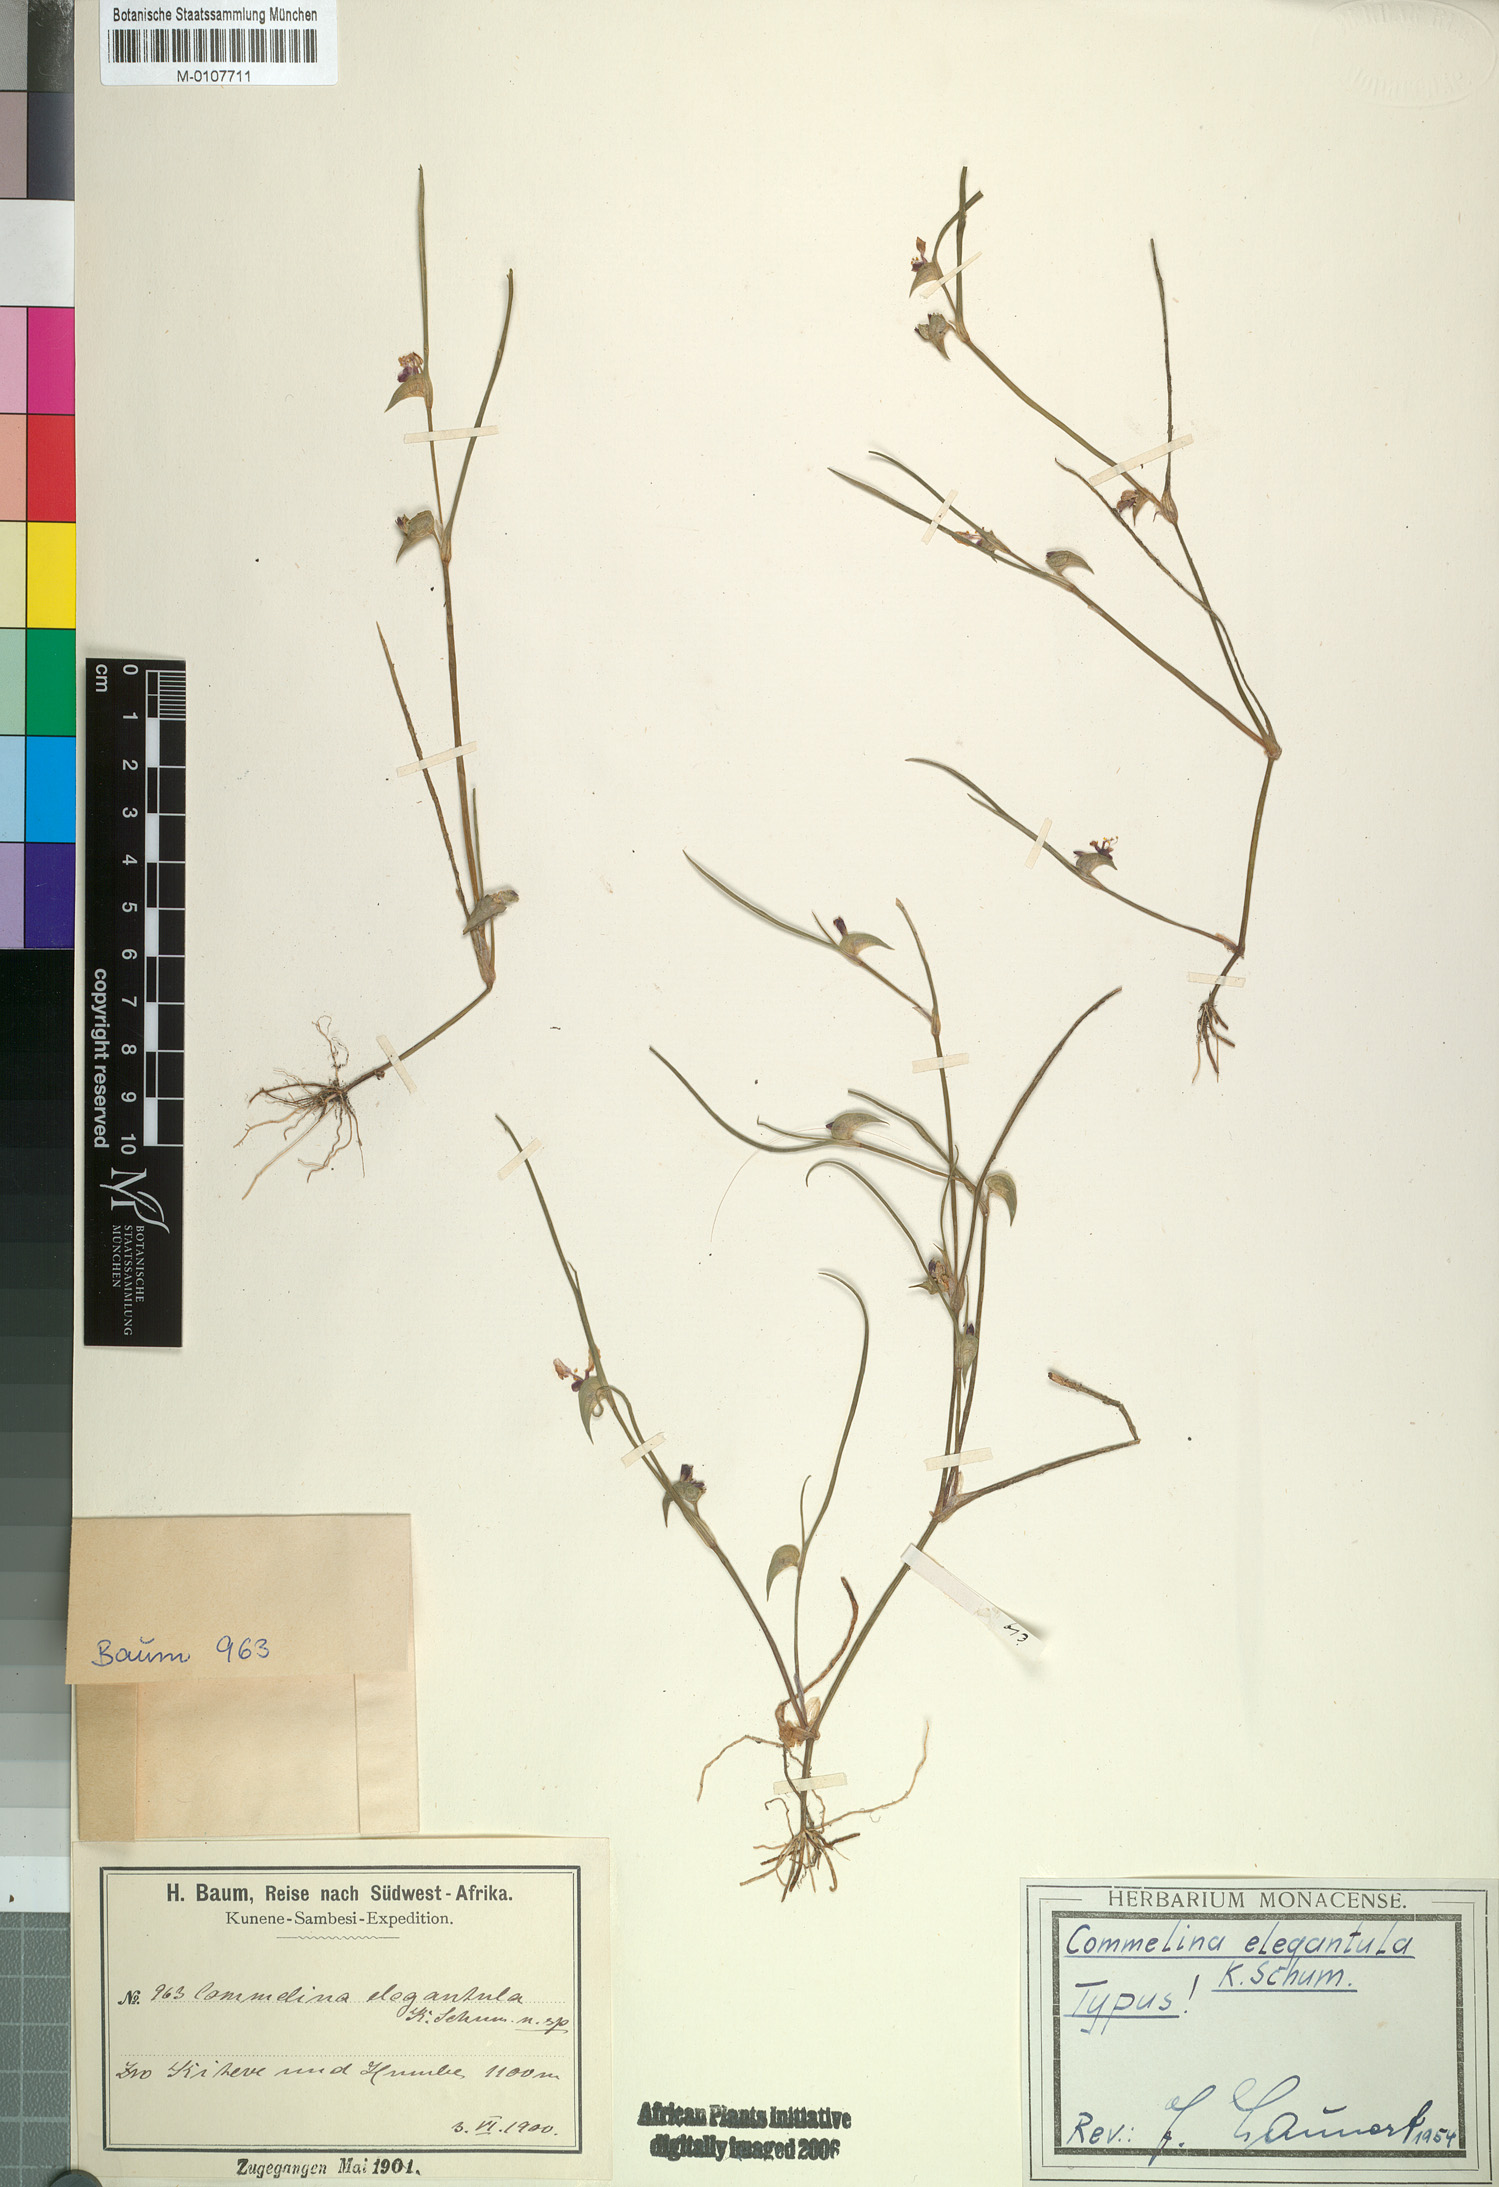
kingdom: Plantae
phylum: Tracheophyta
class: Liliopsida
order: Commelinales
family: Commelinaceae
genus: Commelina
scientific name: Commelina subulata
